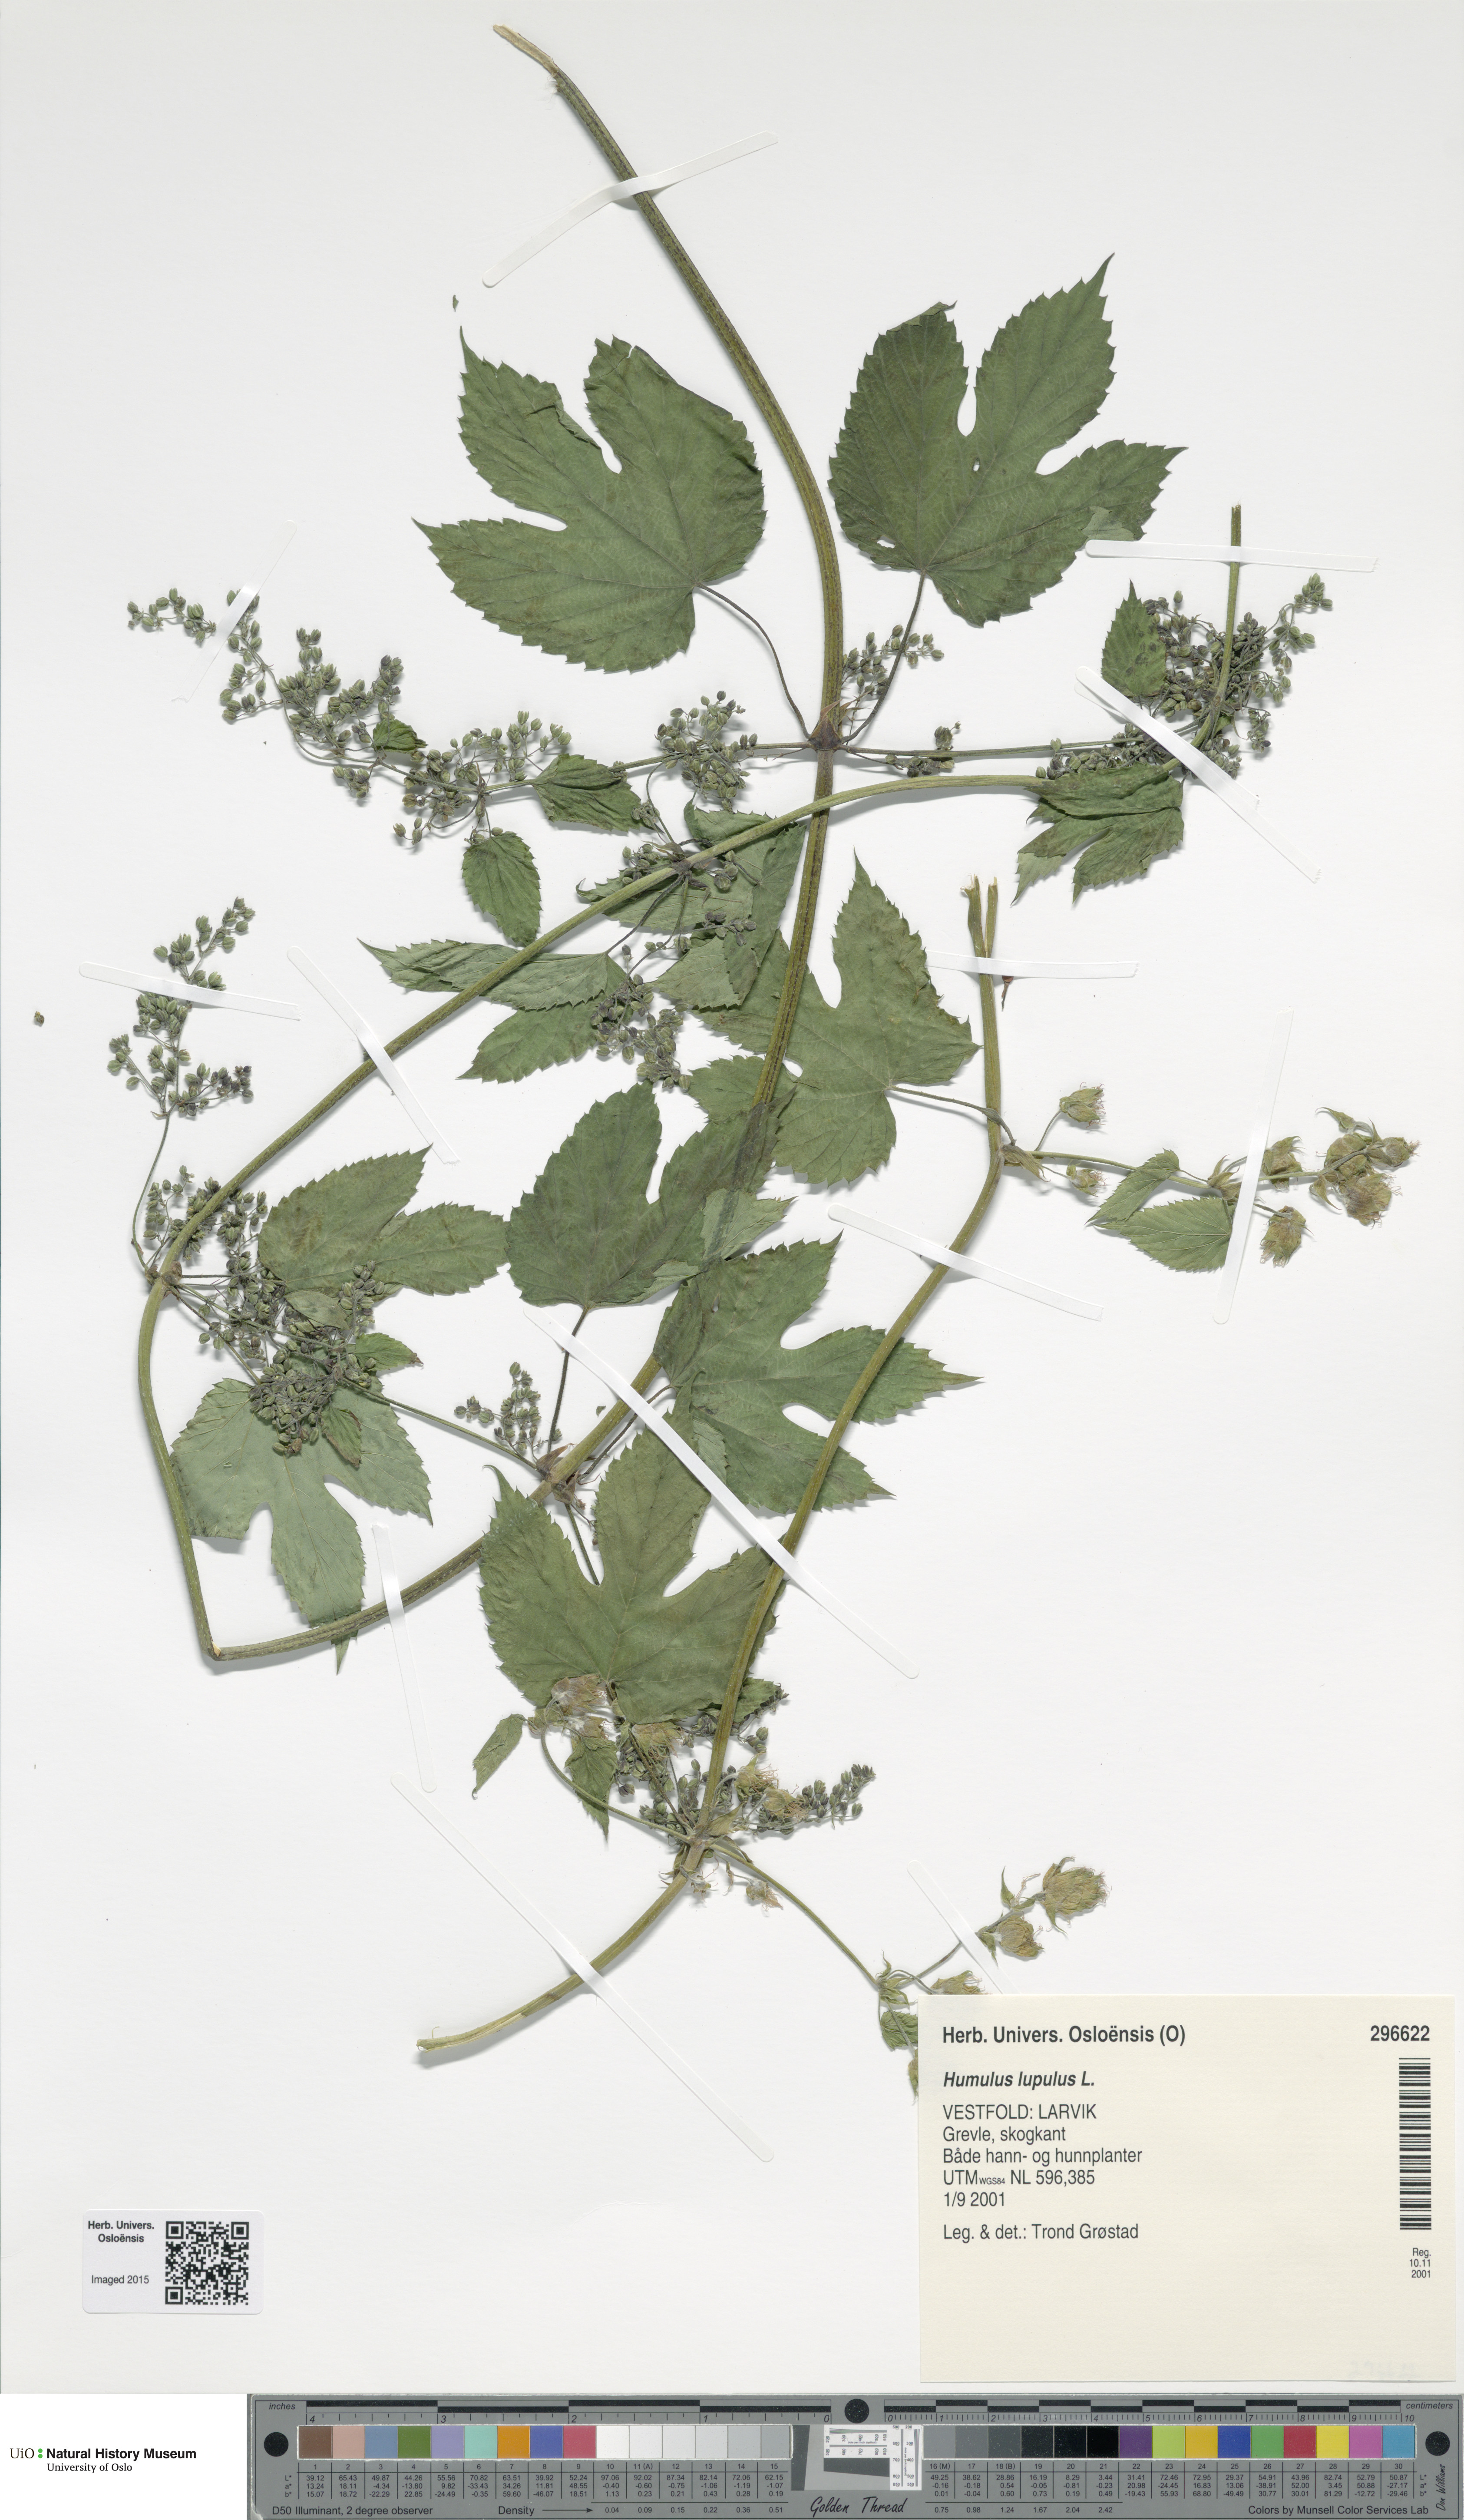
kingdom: Plantae
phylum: Tracheophyta
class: Magnoliopsida
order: Rosales
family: Cannabaceae
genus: Humulus
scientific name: Humulus lupulus
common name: Hop
